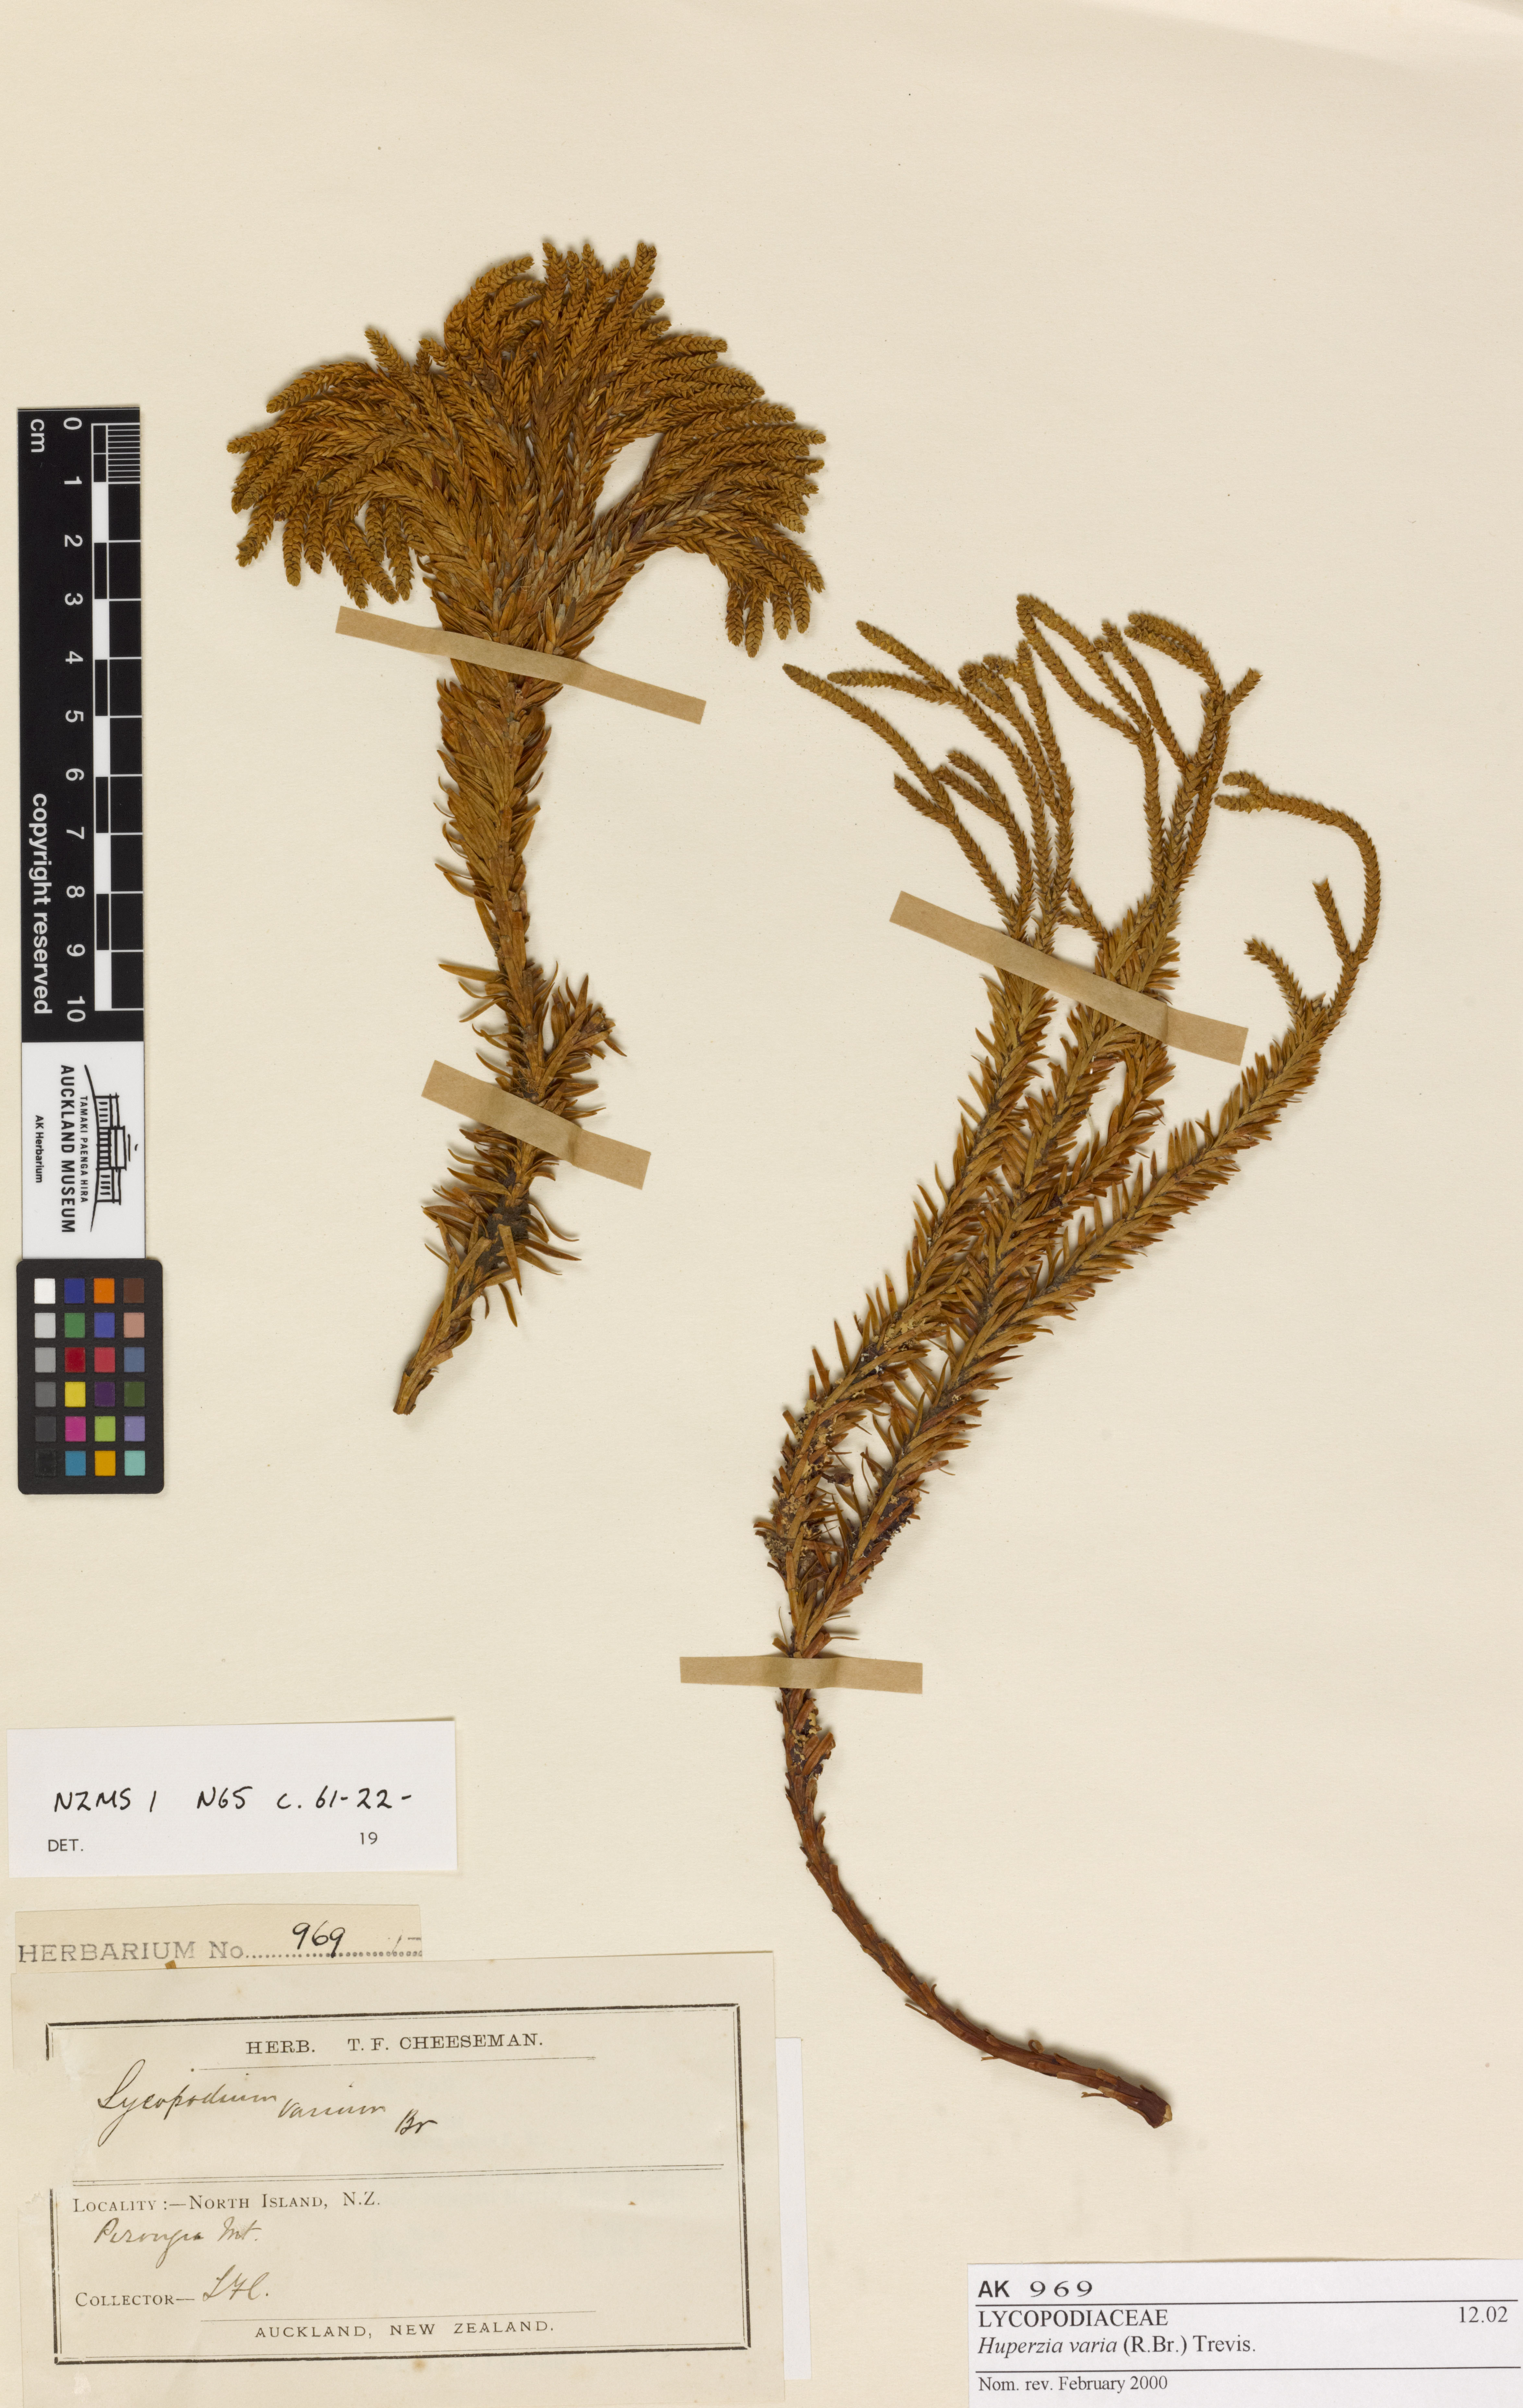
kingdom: Plantae
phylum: Tracheophyta
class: Lycopodiopsida
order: Lycopodiales
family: Lycopodiaceae
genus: Phlegmariurus
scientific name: Phlegmariurus varius
